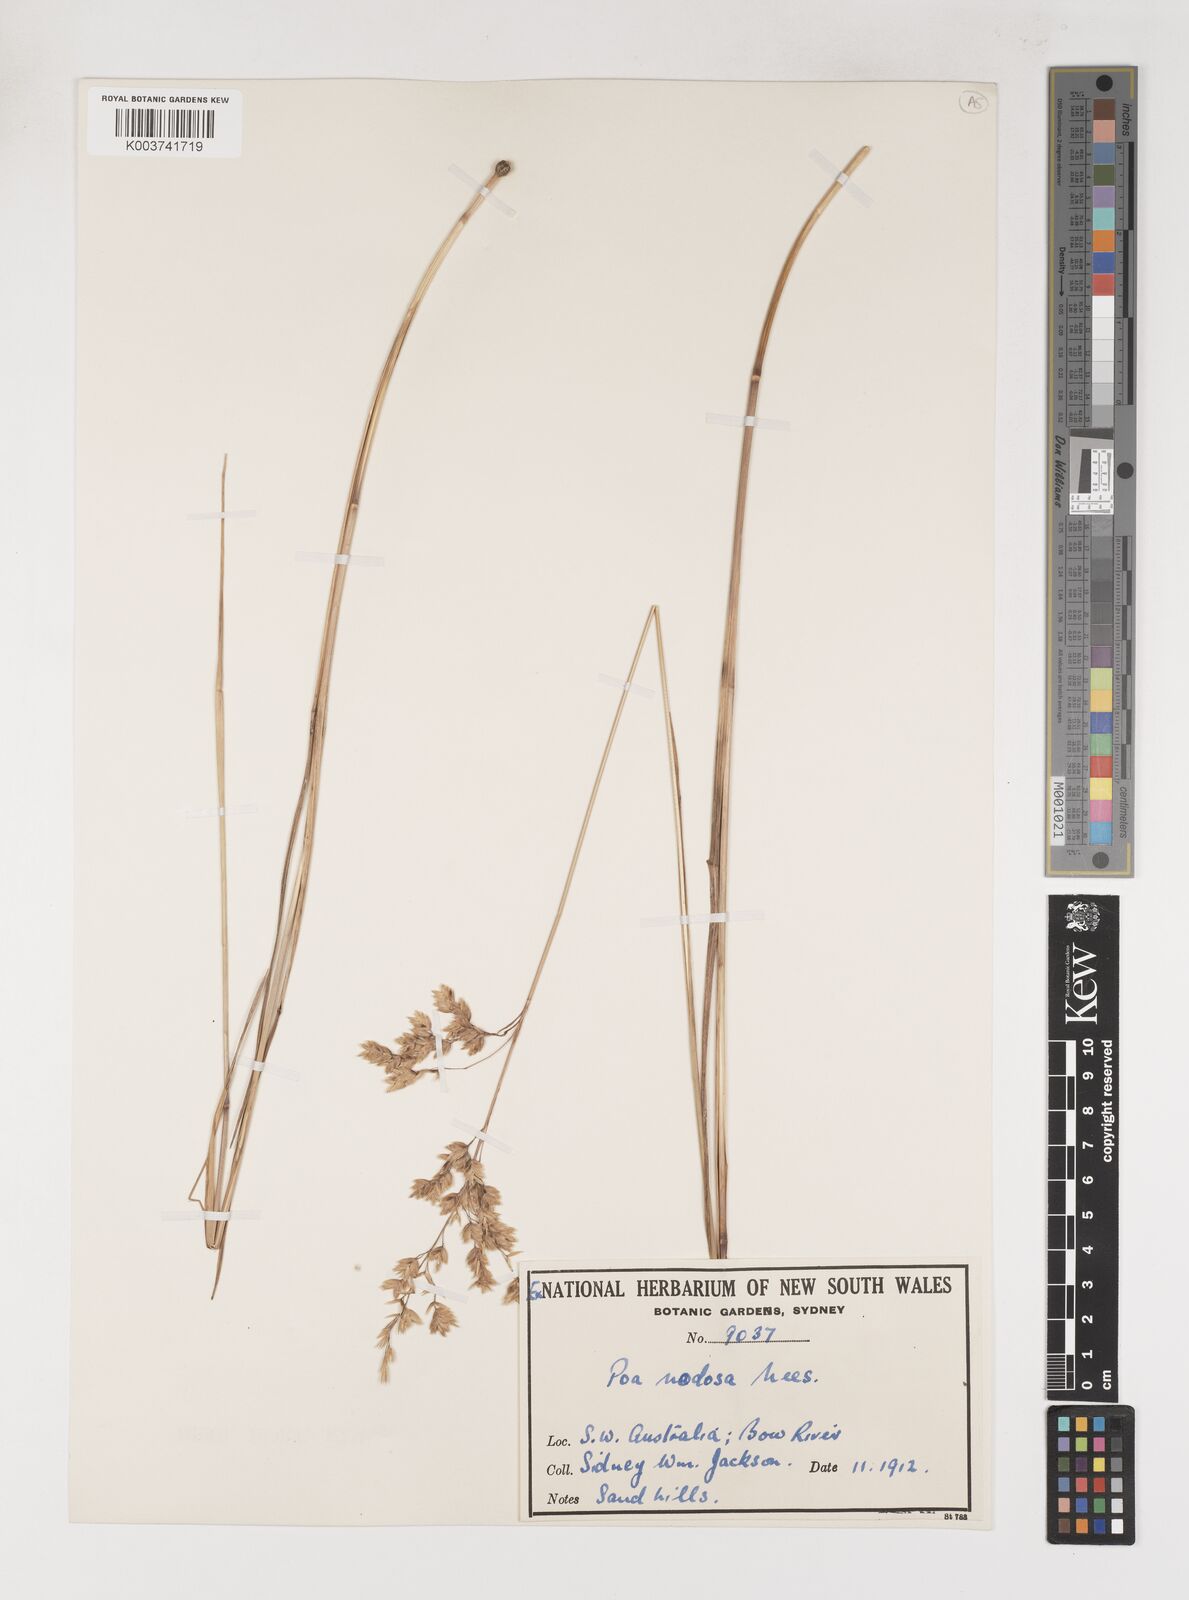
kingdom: Plantae
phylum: Tracheophyta
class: Liliopsida
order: Poales
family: Poaceae
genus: Poa
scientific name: Poa drummondiana
